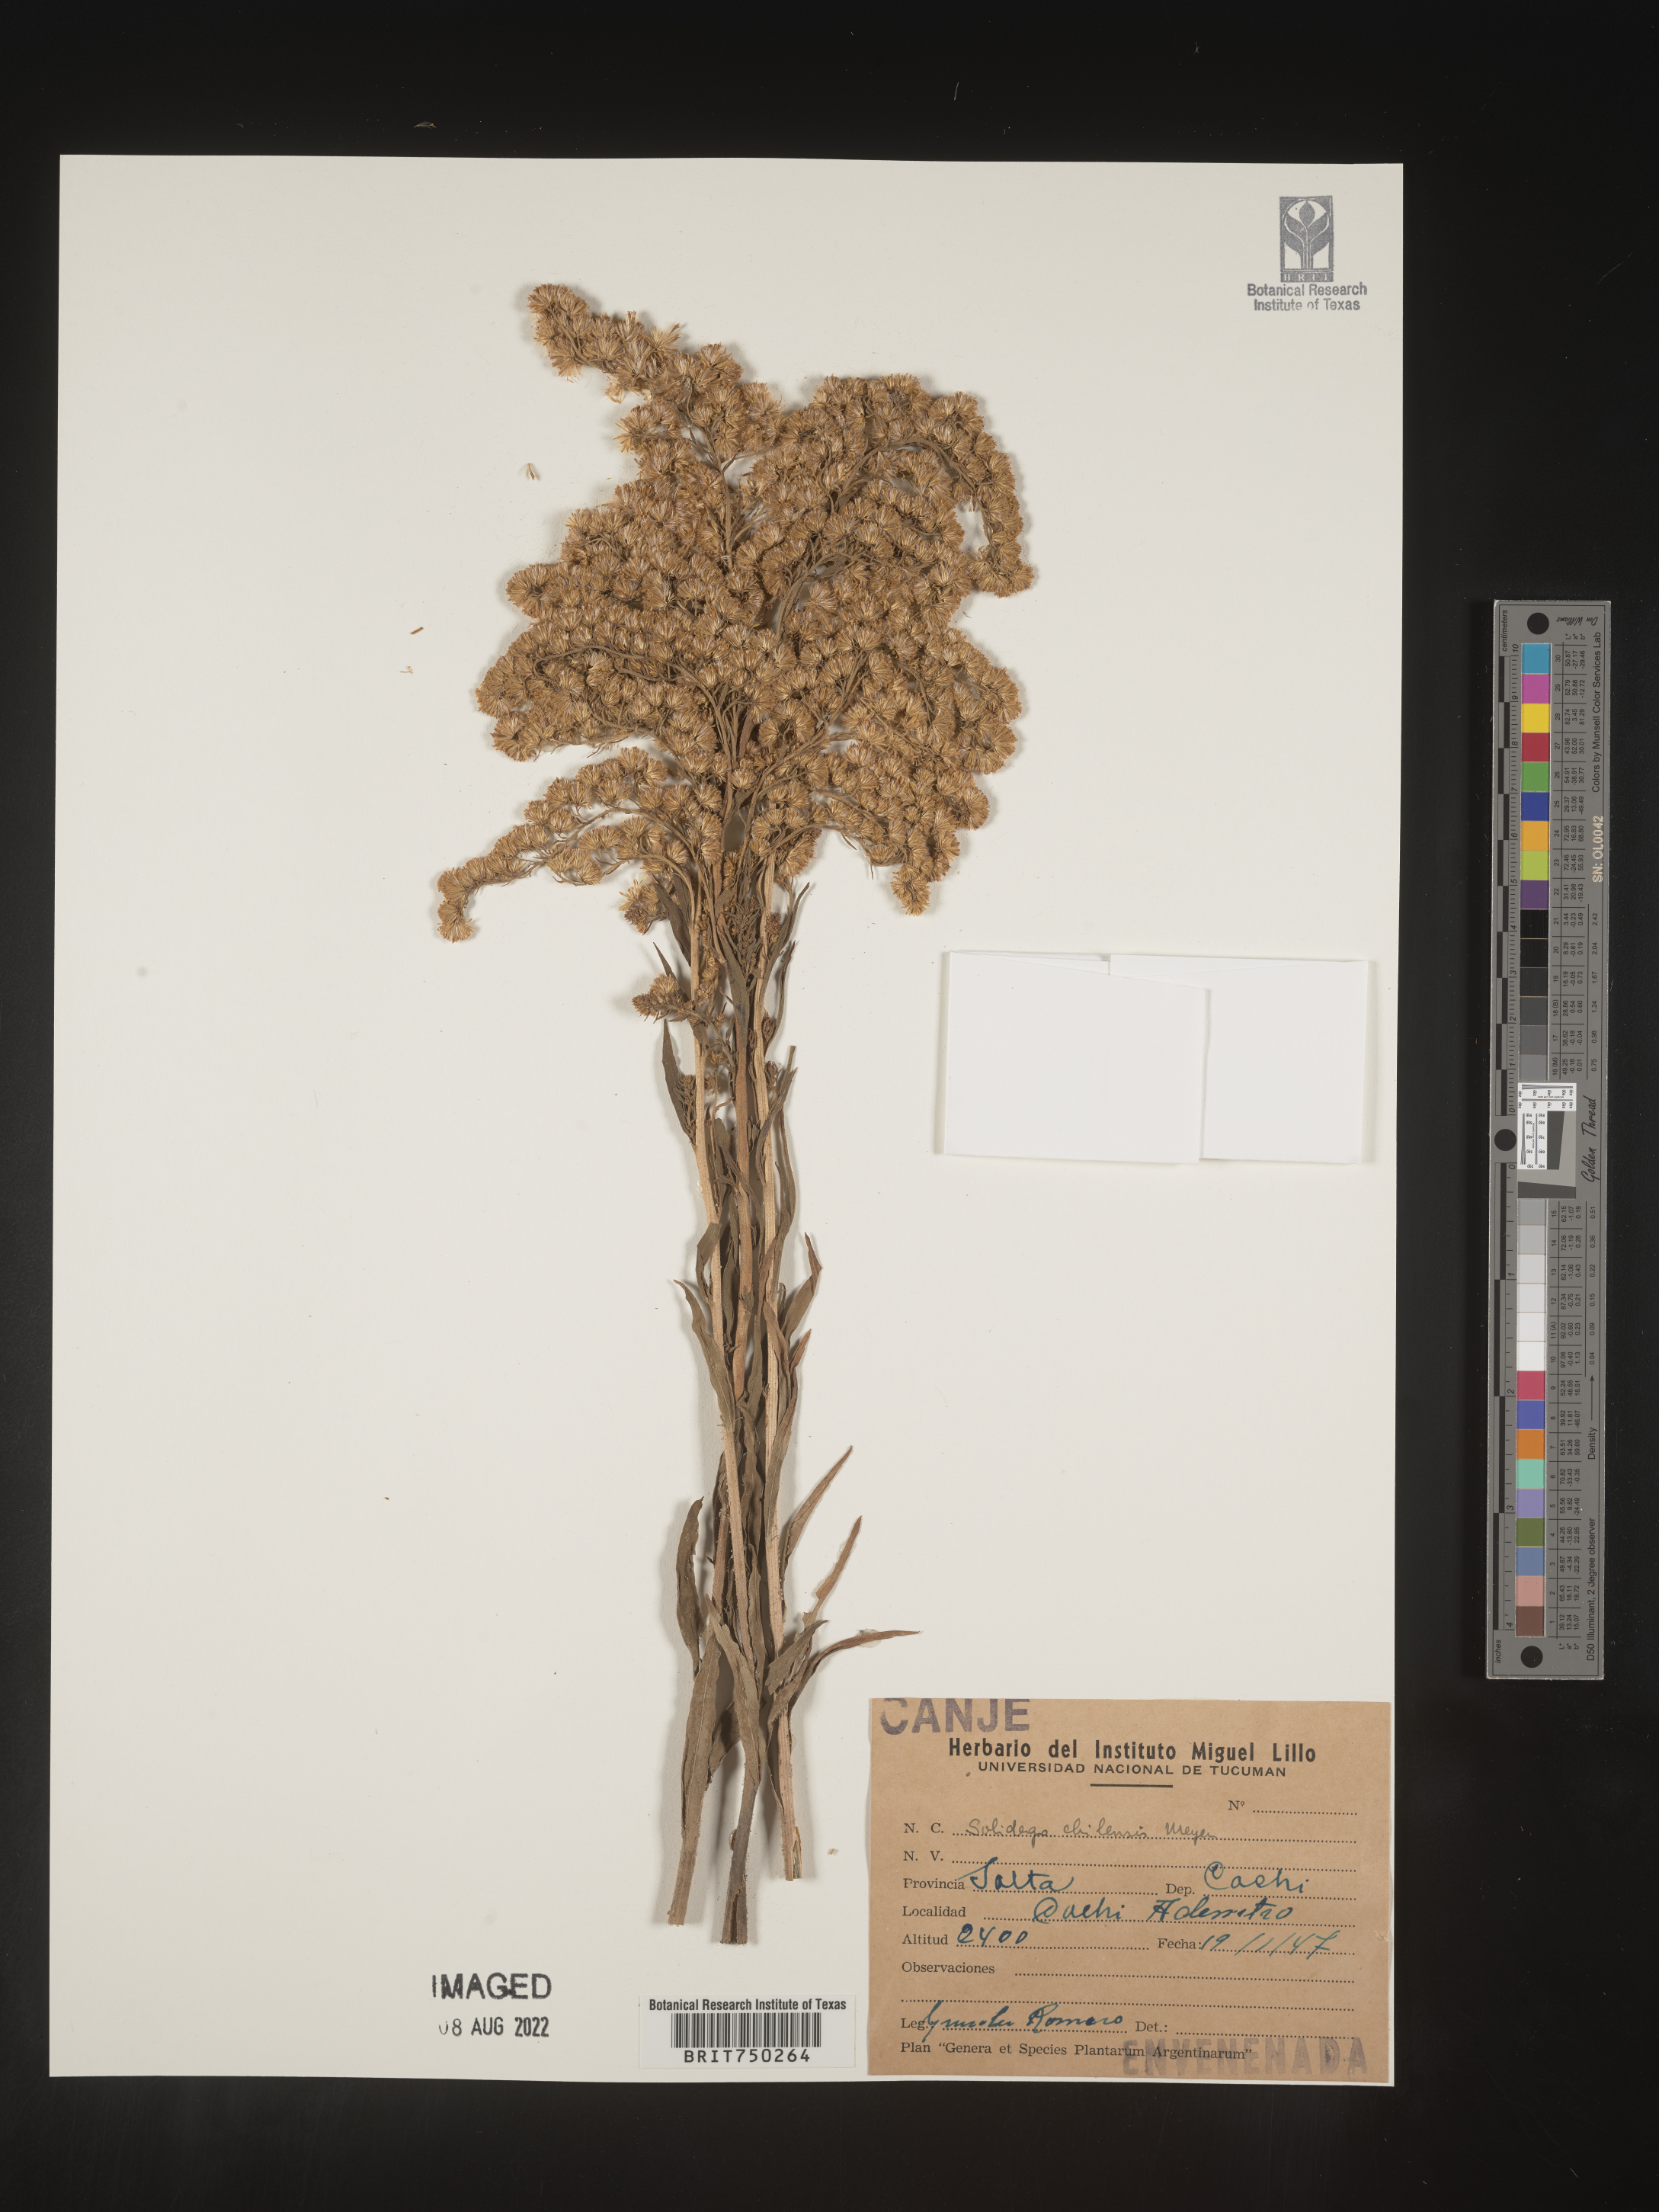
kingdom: Plantae
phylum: Tracheophyta
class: Magnoliopsida
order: Asterales
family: Asteraceae
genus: Solidago
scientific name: Solidago
